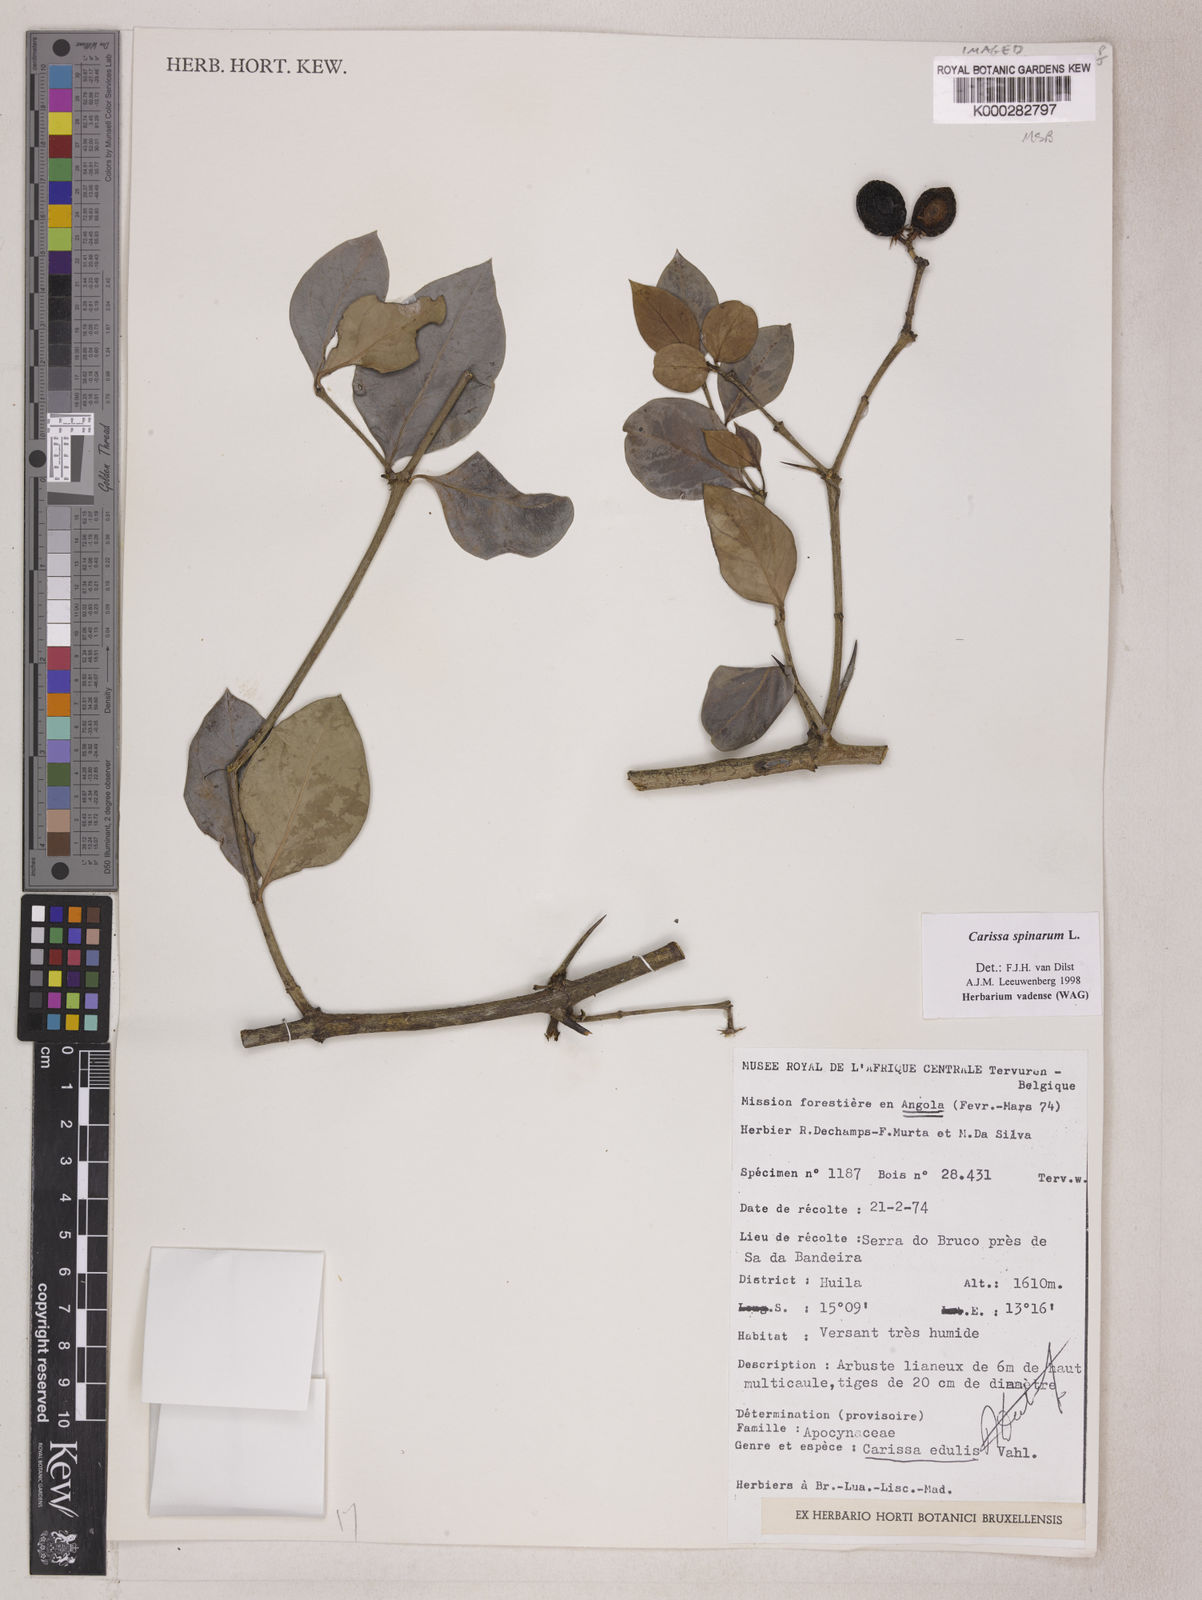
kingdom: Plantae
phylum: Tracheophyta
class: Magnoliopsida
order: Gentianales
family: Apocynaceae
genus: Carissa
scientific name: Carissa spinarum
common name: Egyptian carissa
